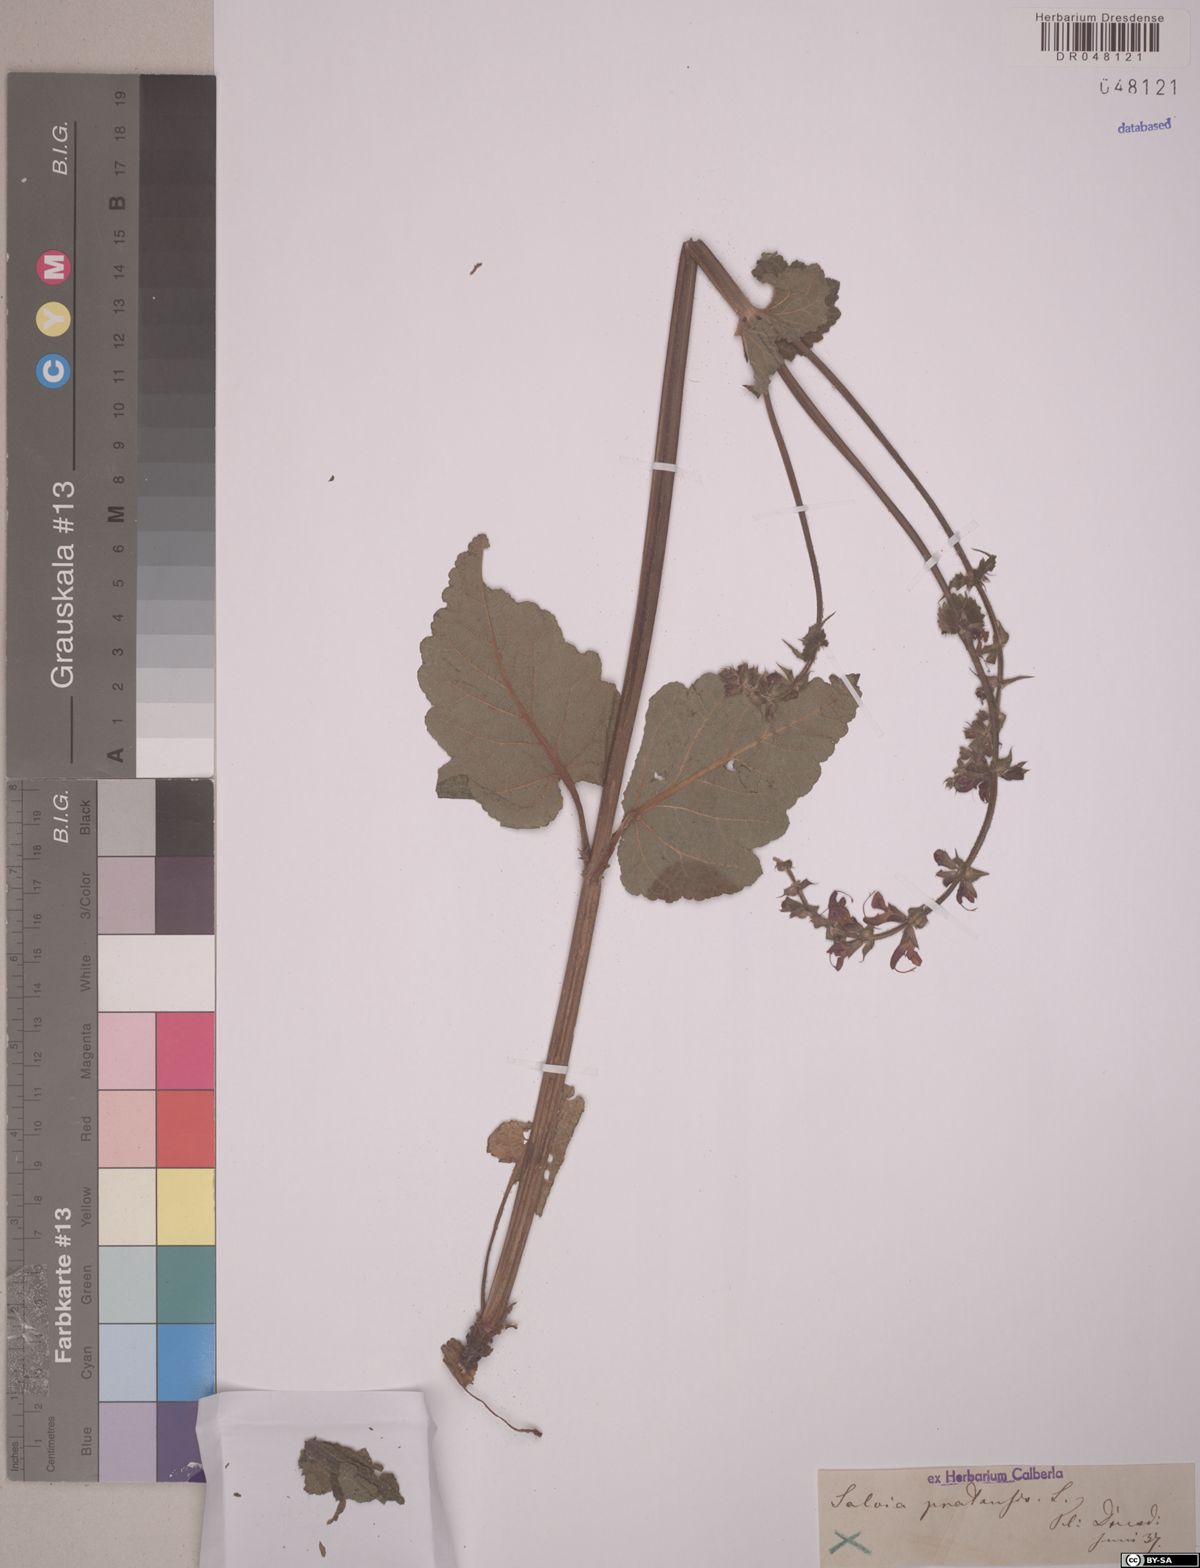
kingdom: Plantae
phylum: Tracheophyta
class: Magnoliopsida
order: Lamiales
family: Lamiaceae
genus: Salvia
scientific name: Salvia pratensis
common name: Meadow sage
